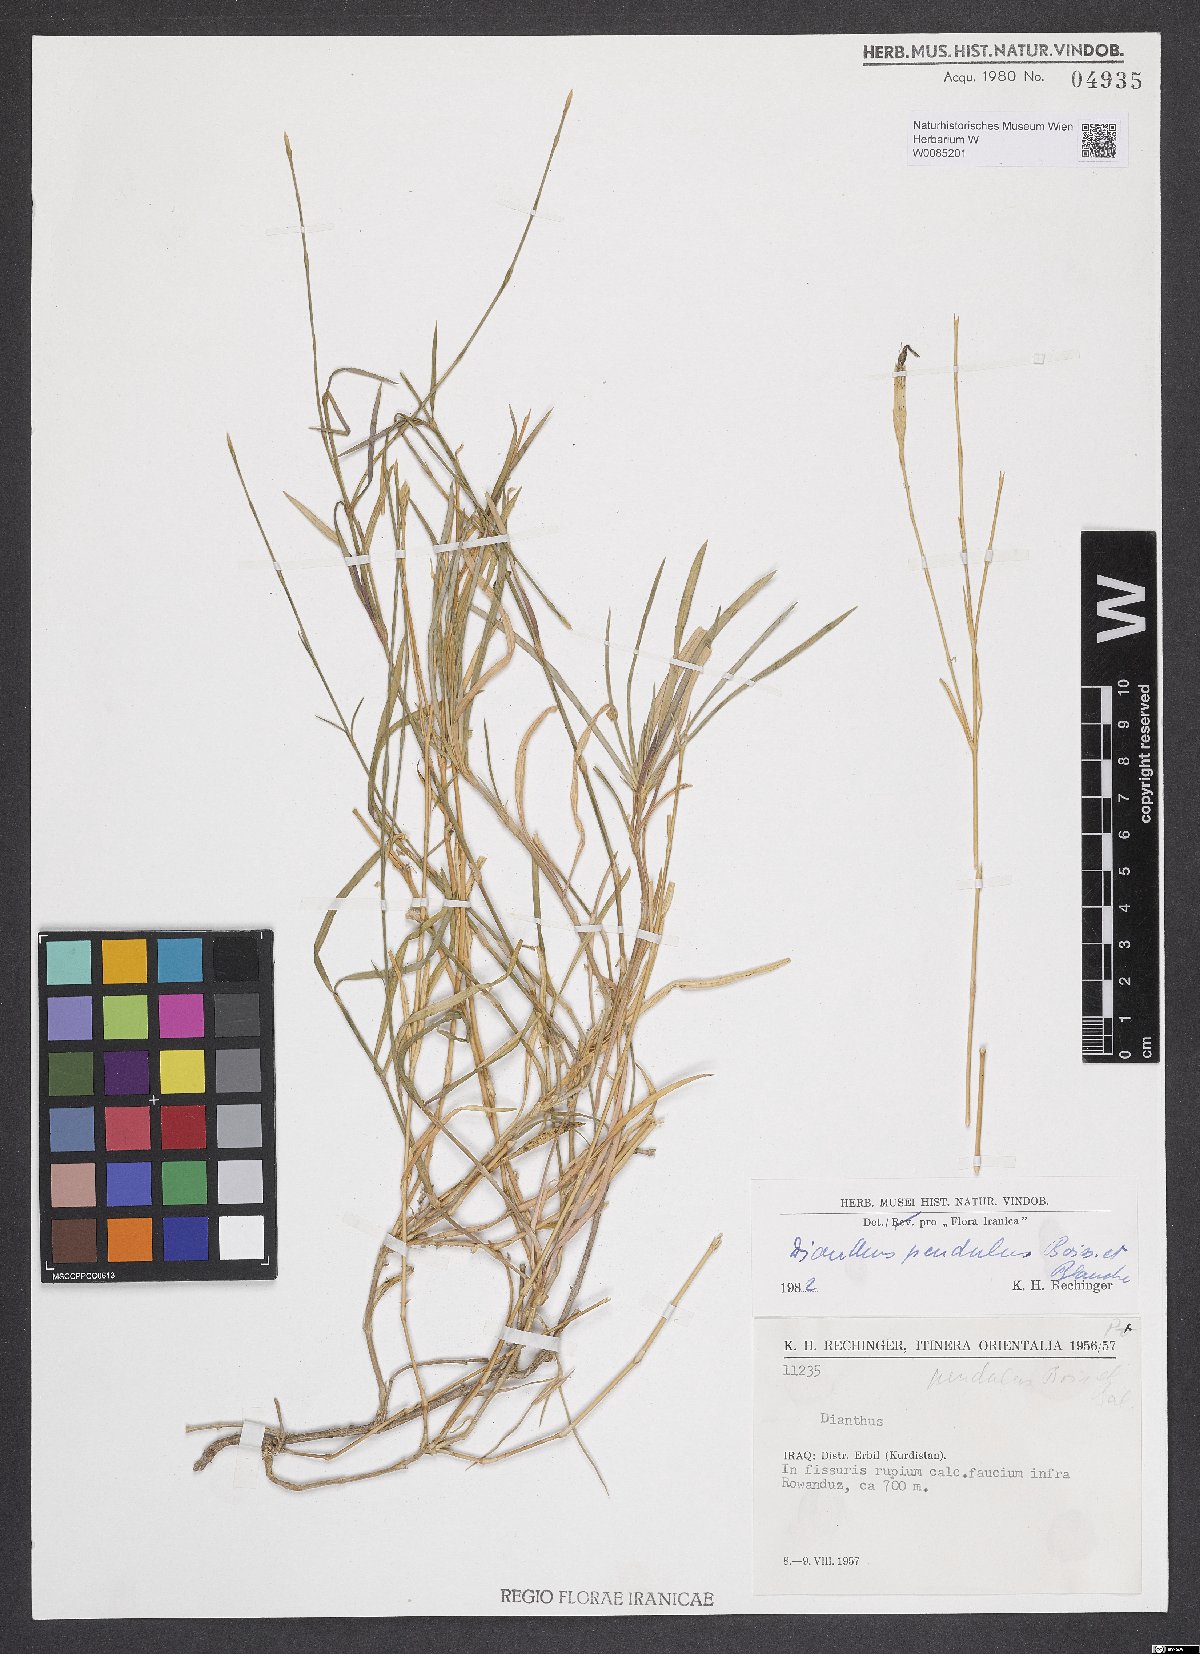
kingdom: Plantae
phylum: Tracheophyta
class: Magnoliopsida
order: Caryophyllales
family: Caryophyllaceae
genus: Dianthus
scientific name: Dianthus pendulus
